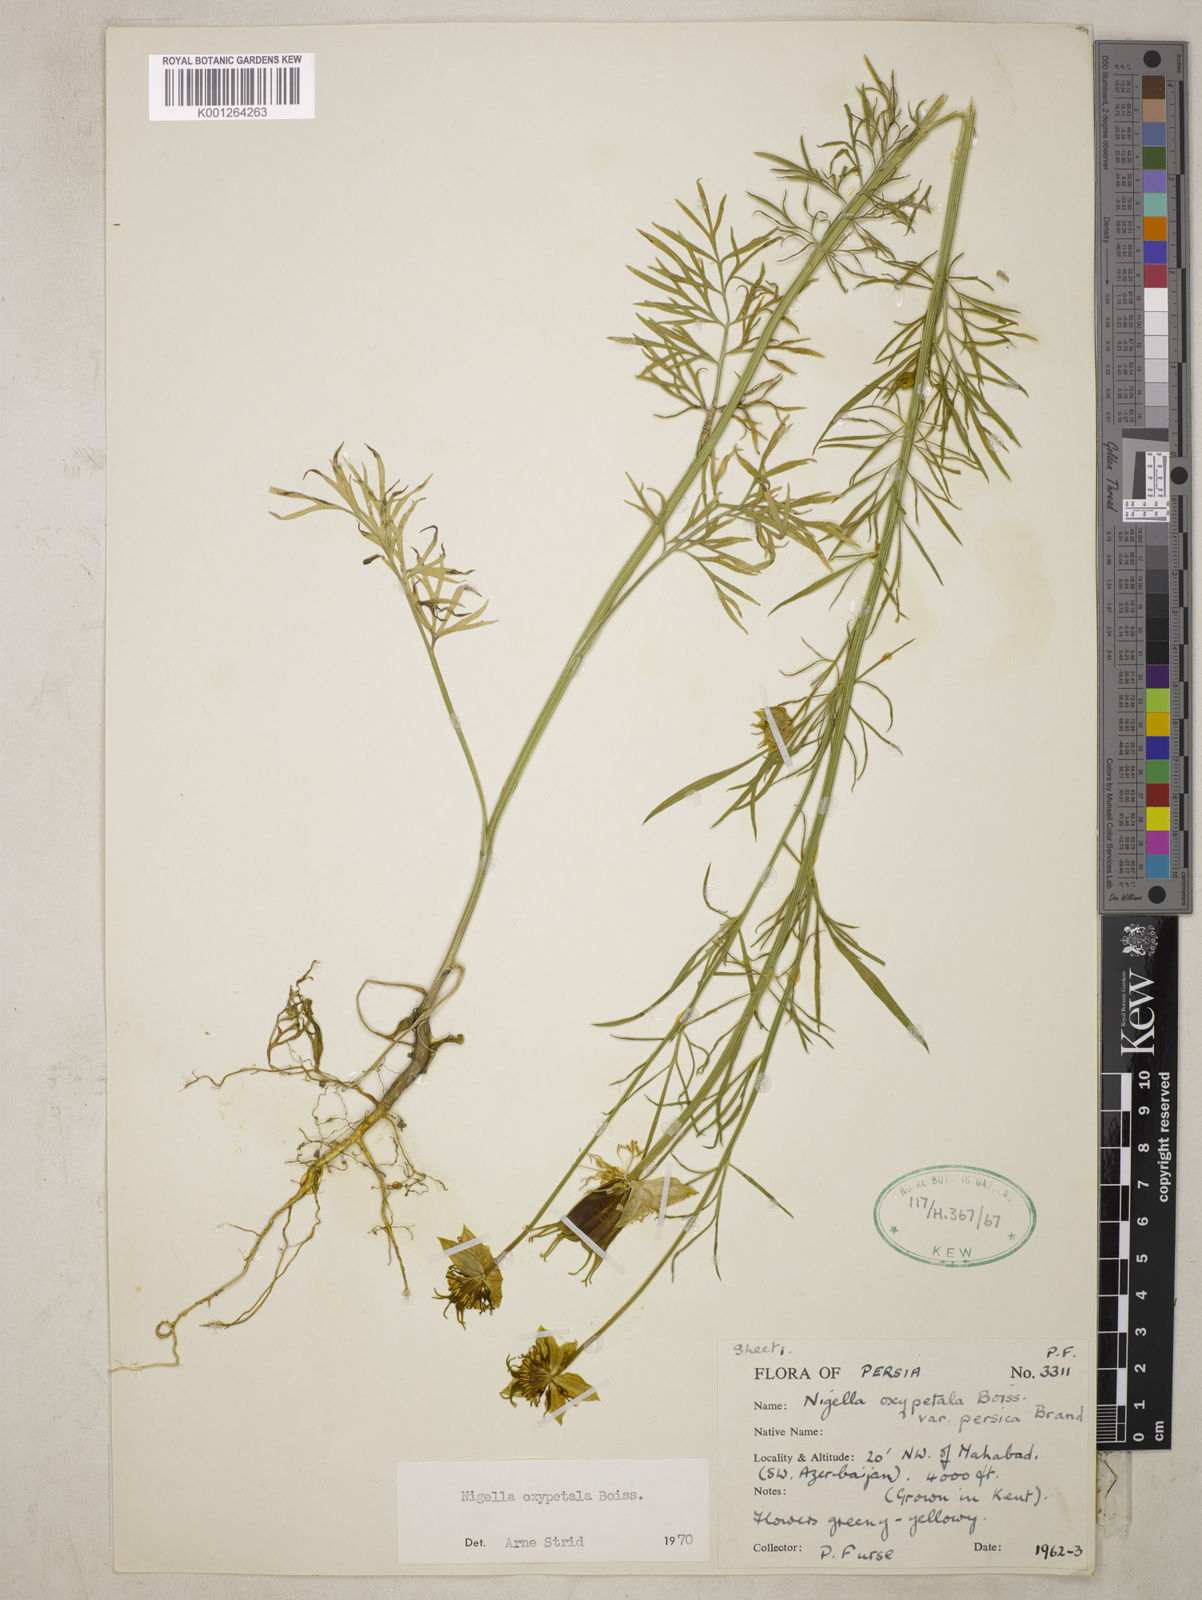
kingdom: Plantae
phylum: Tracheophyta
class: Magnoliopsida
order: Ranunculales
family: Ranunculaceae
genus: Nigella
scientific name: Nigella oxypetala
